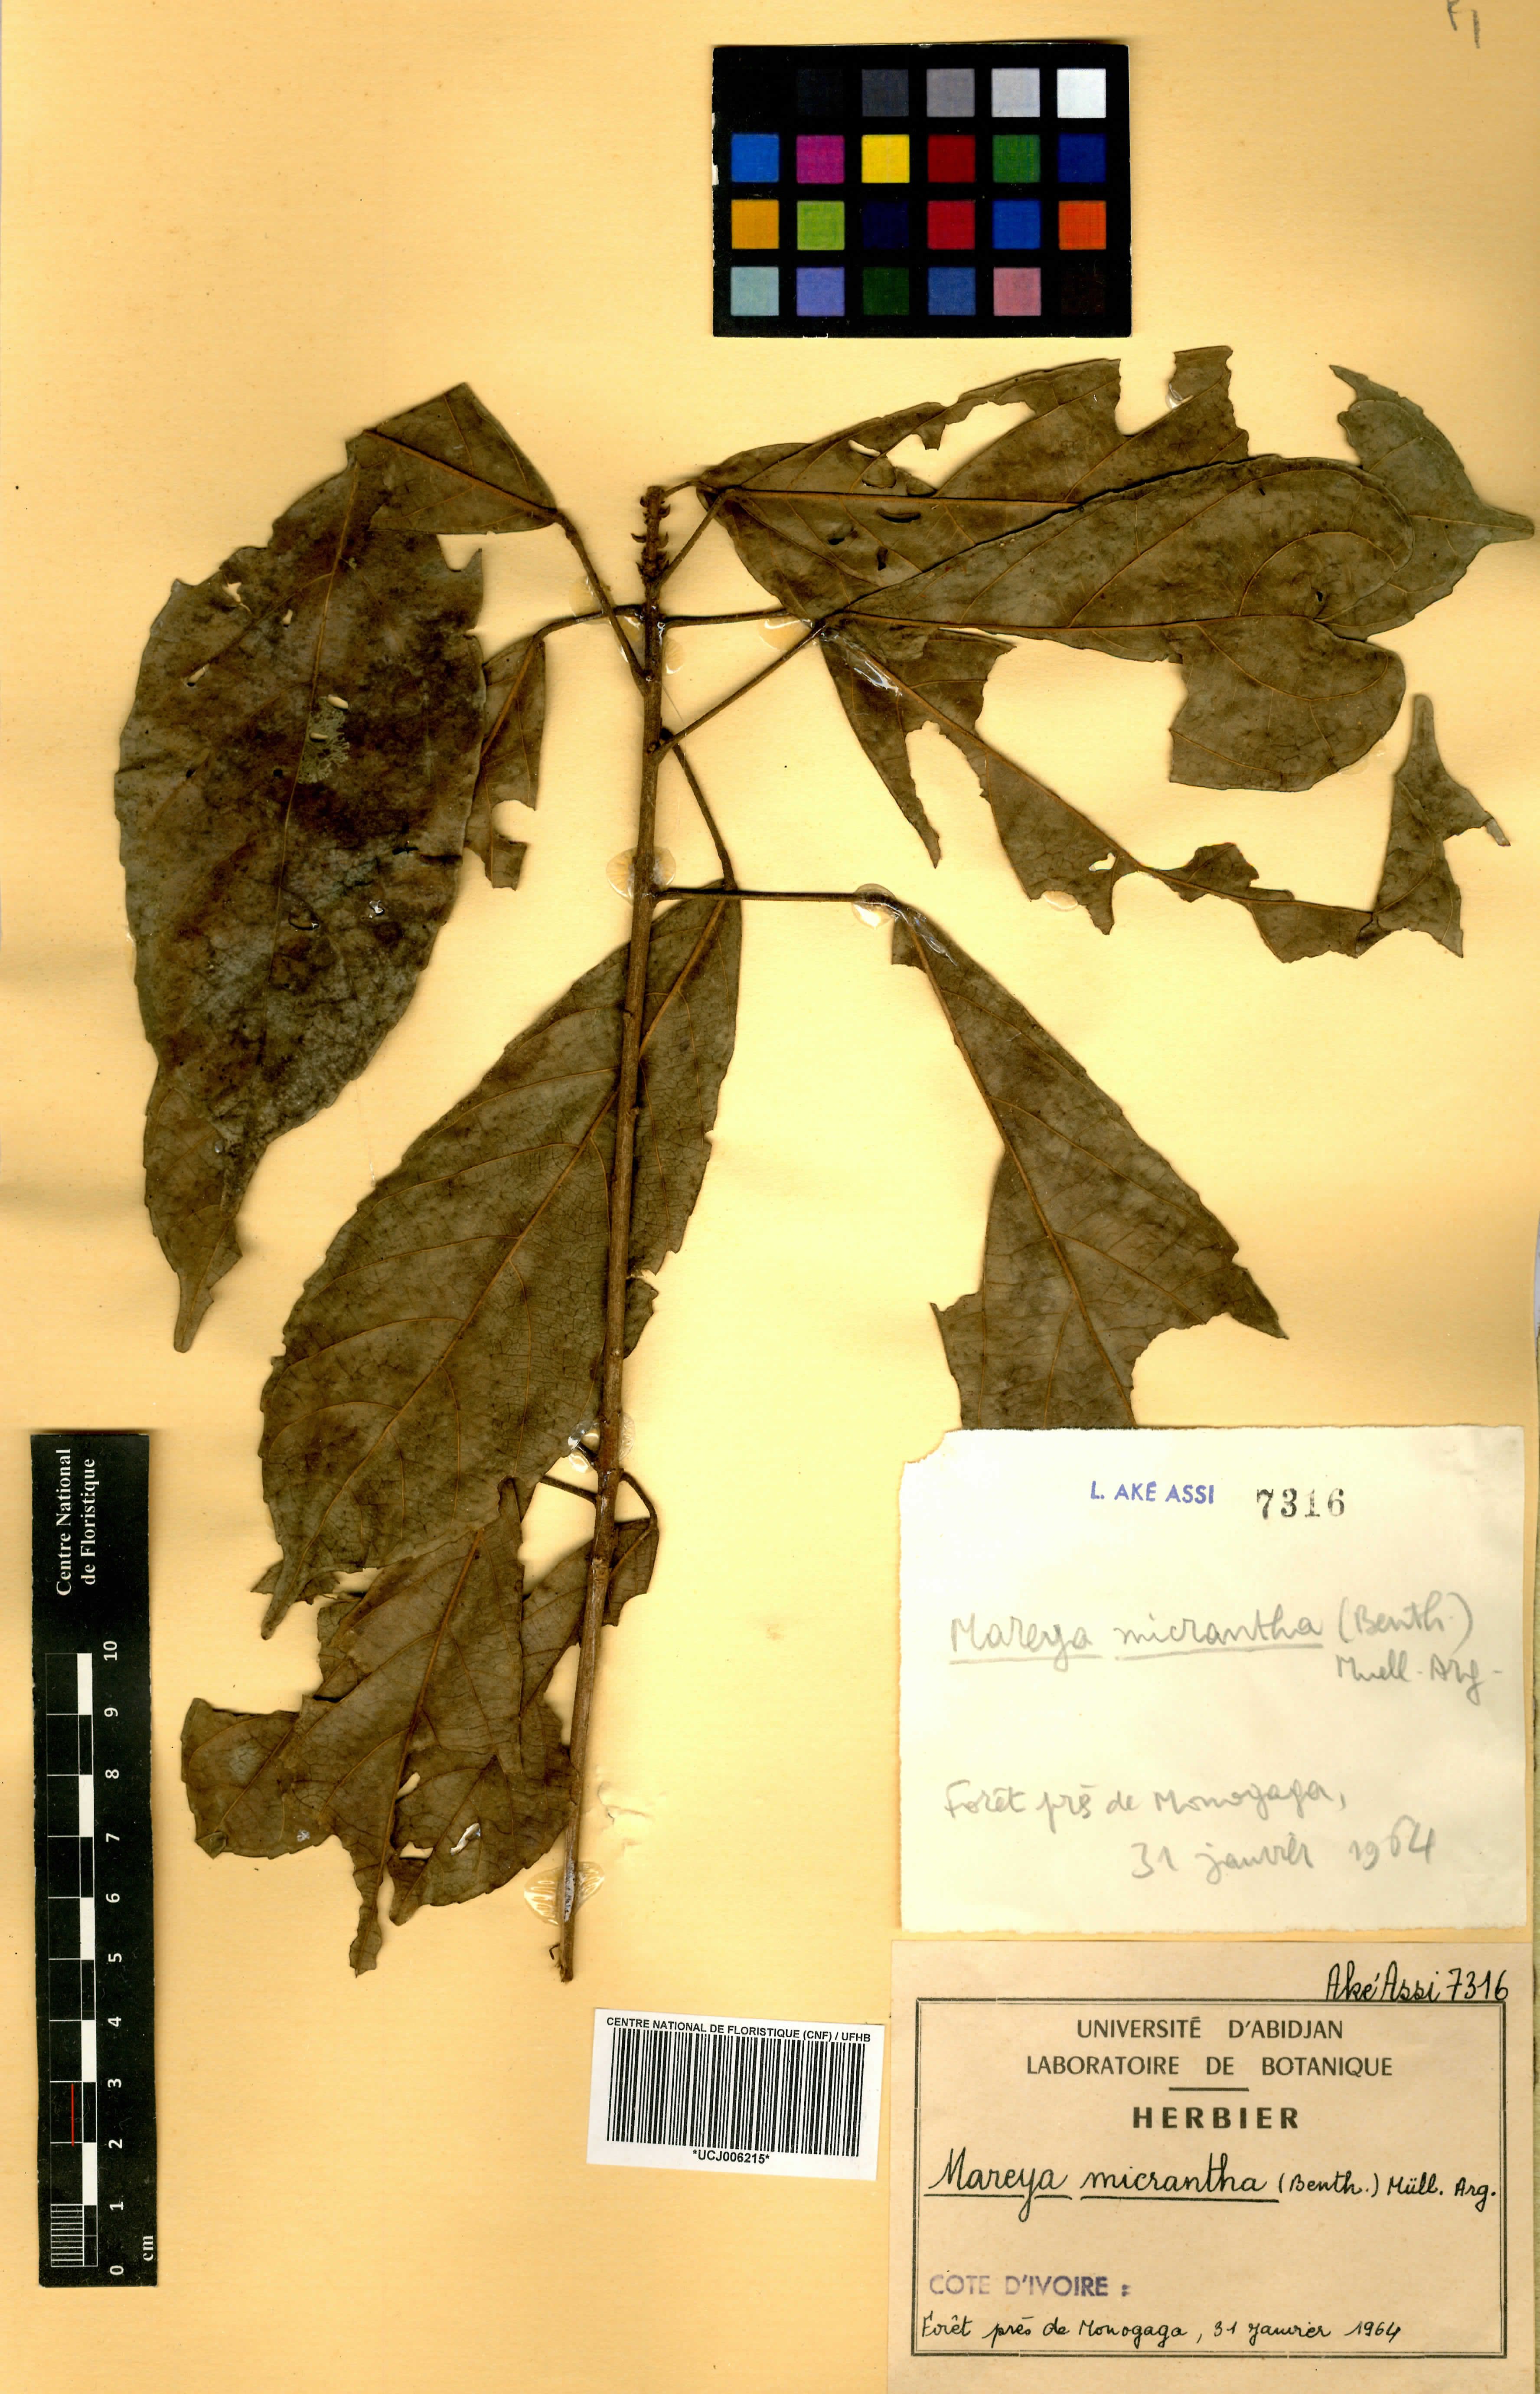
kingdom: Plantae
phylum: Tracheophyta
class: Magnoliopsida
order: Malpighiales
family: Euphorbiaceae
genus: Mareya
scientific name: Mareya micrantha
